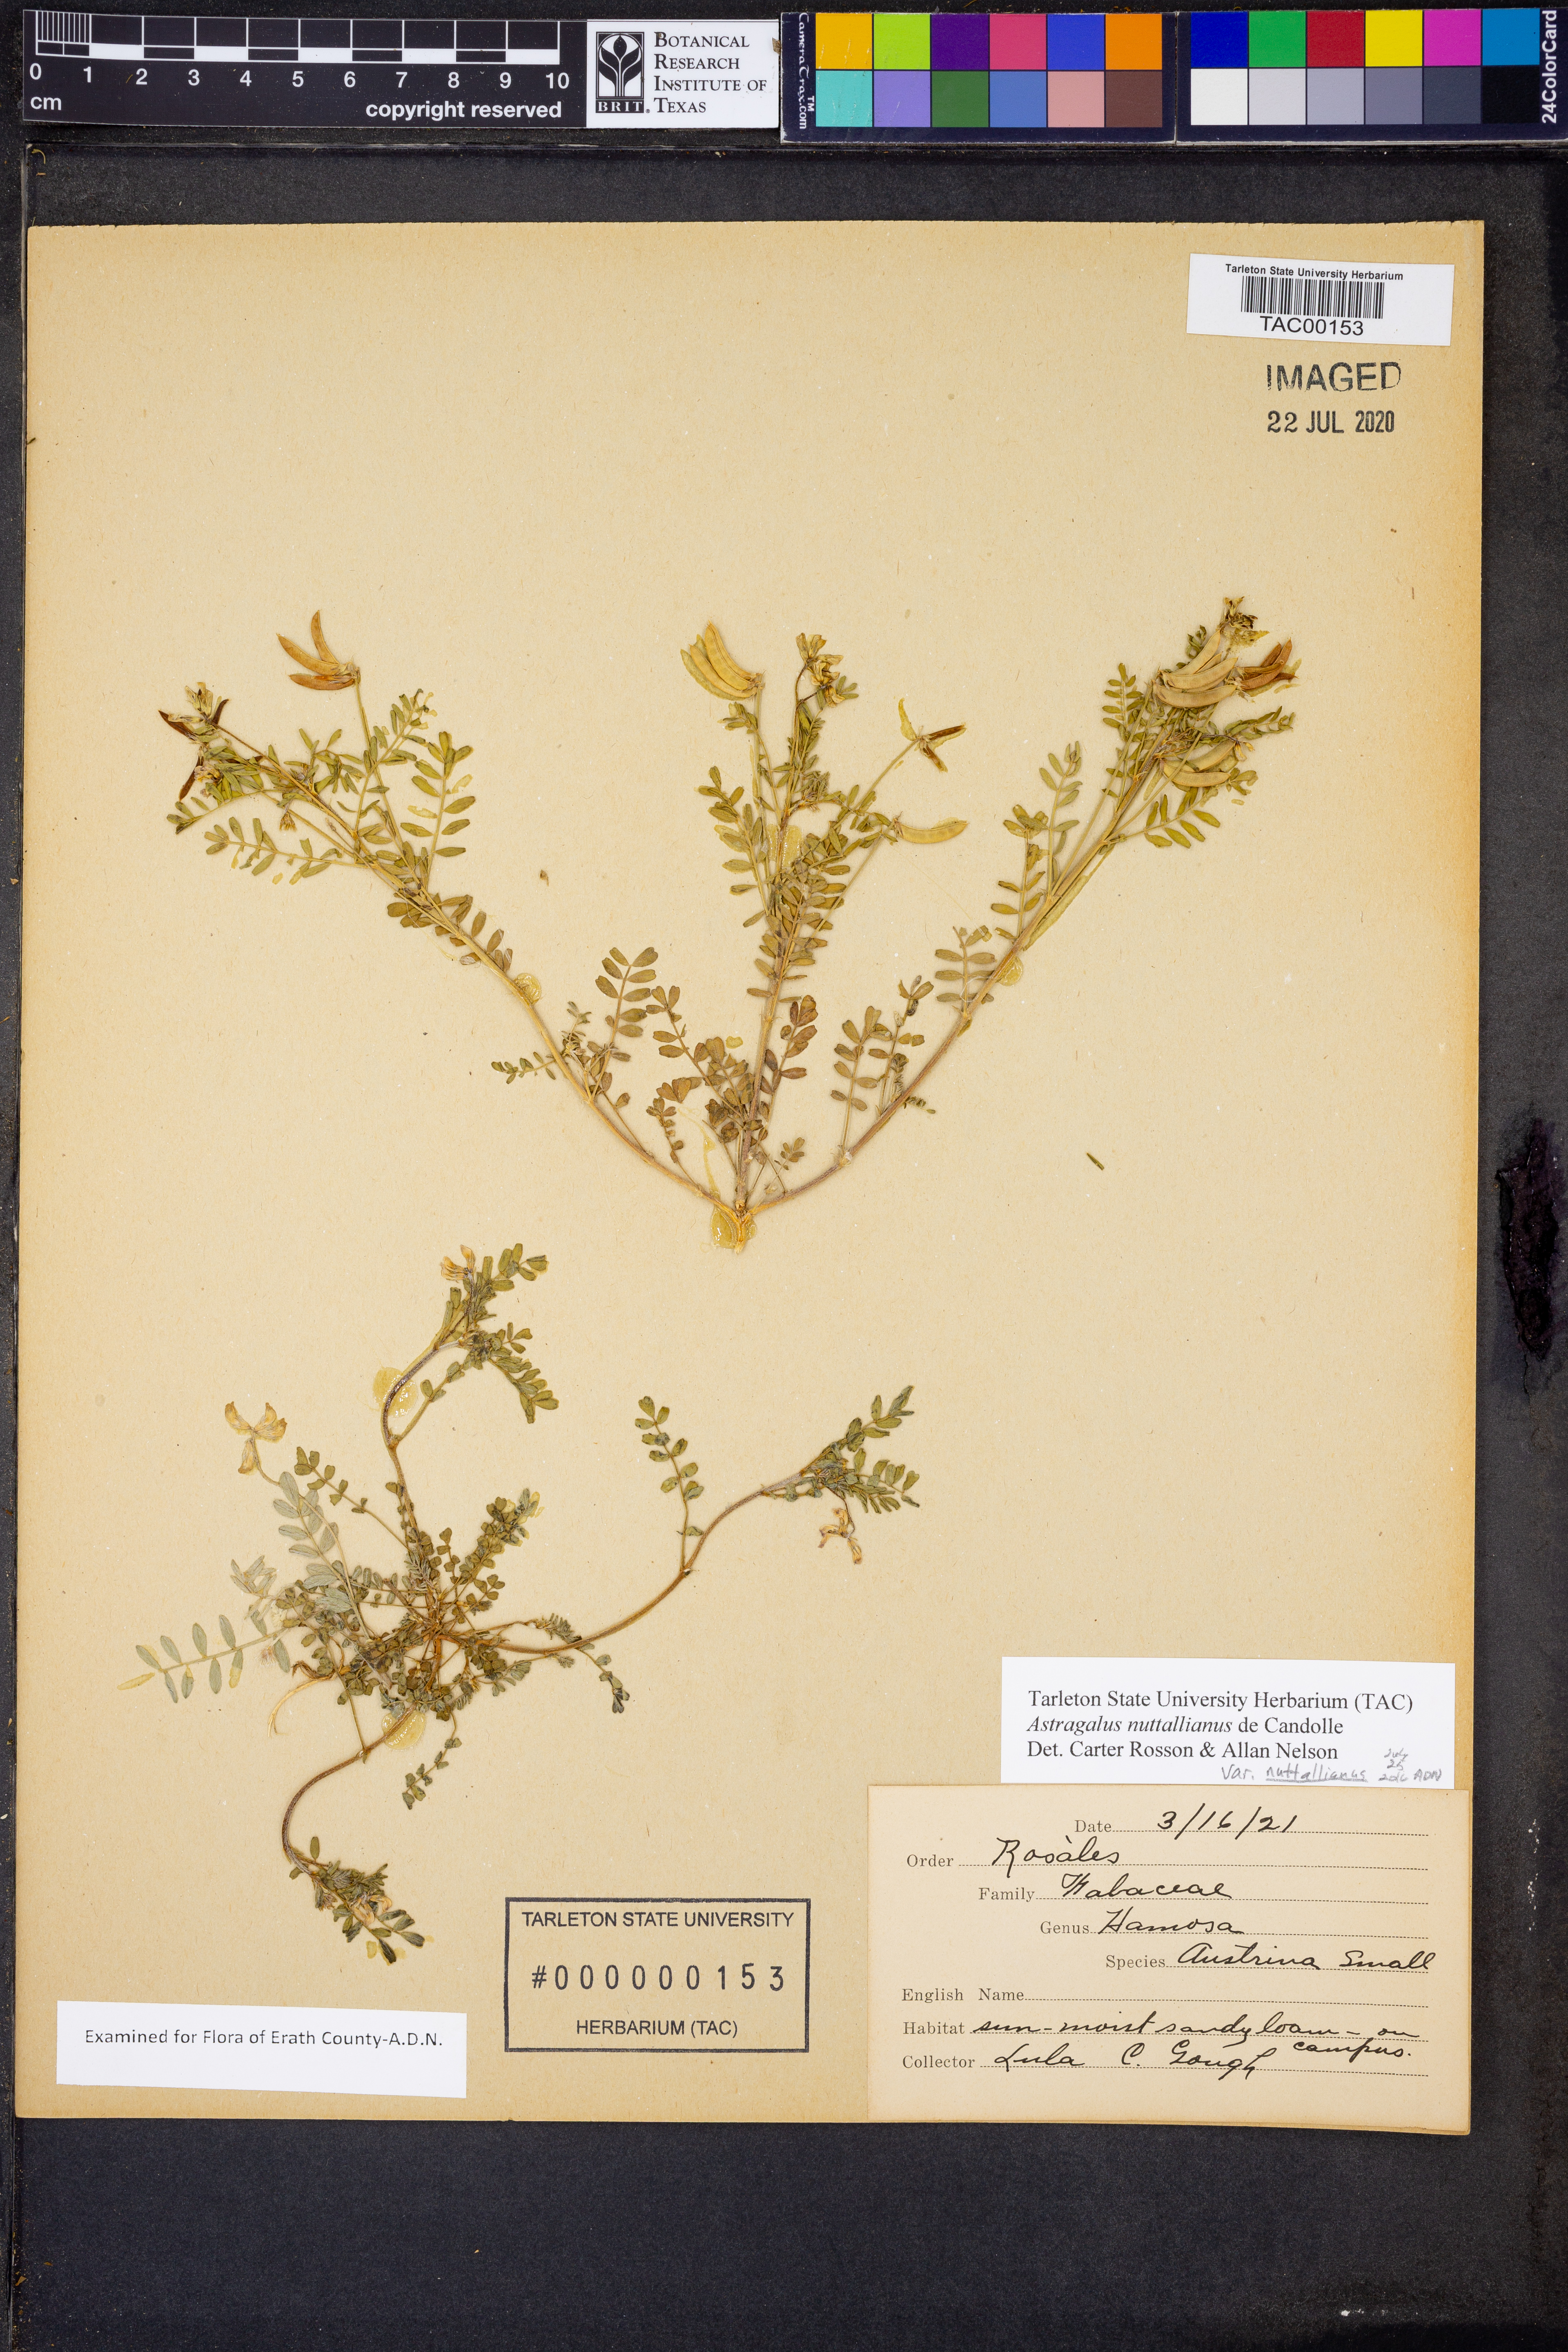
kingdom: Plantae
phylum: Tracheophyta
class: Magnoliopsida
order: Fabales
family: Fabaceae
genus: Astragalus
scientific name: Astragalus nuttallianus
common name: Smallflowered milkvetch
